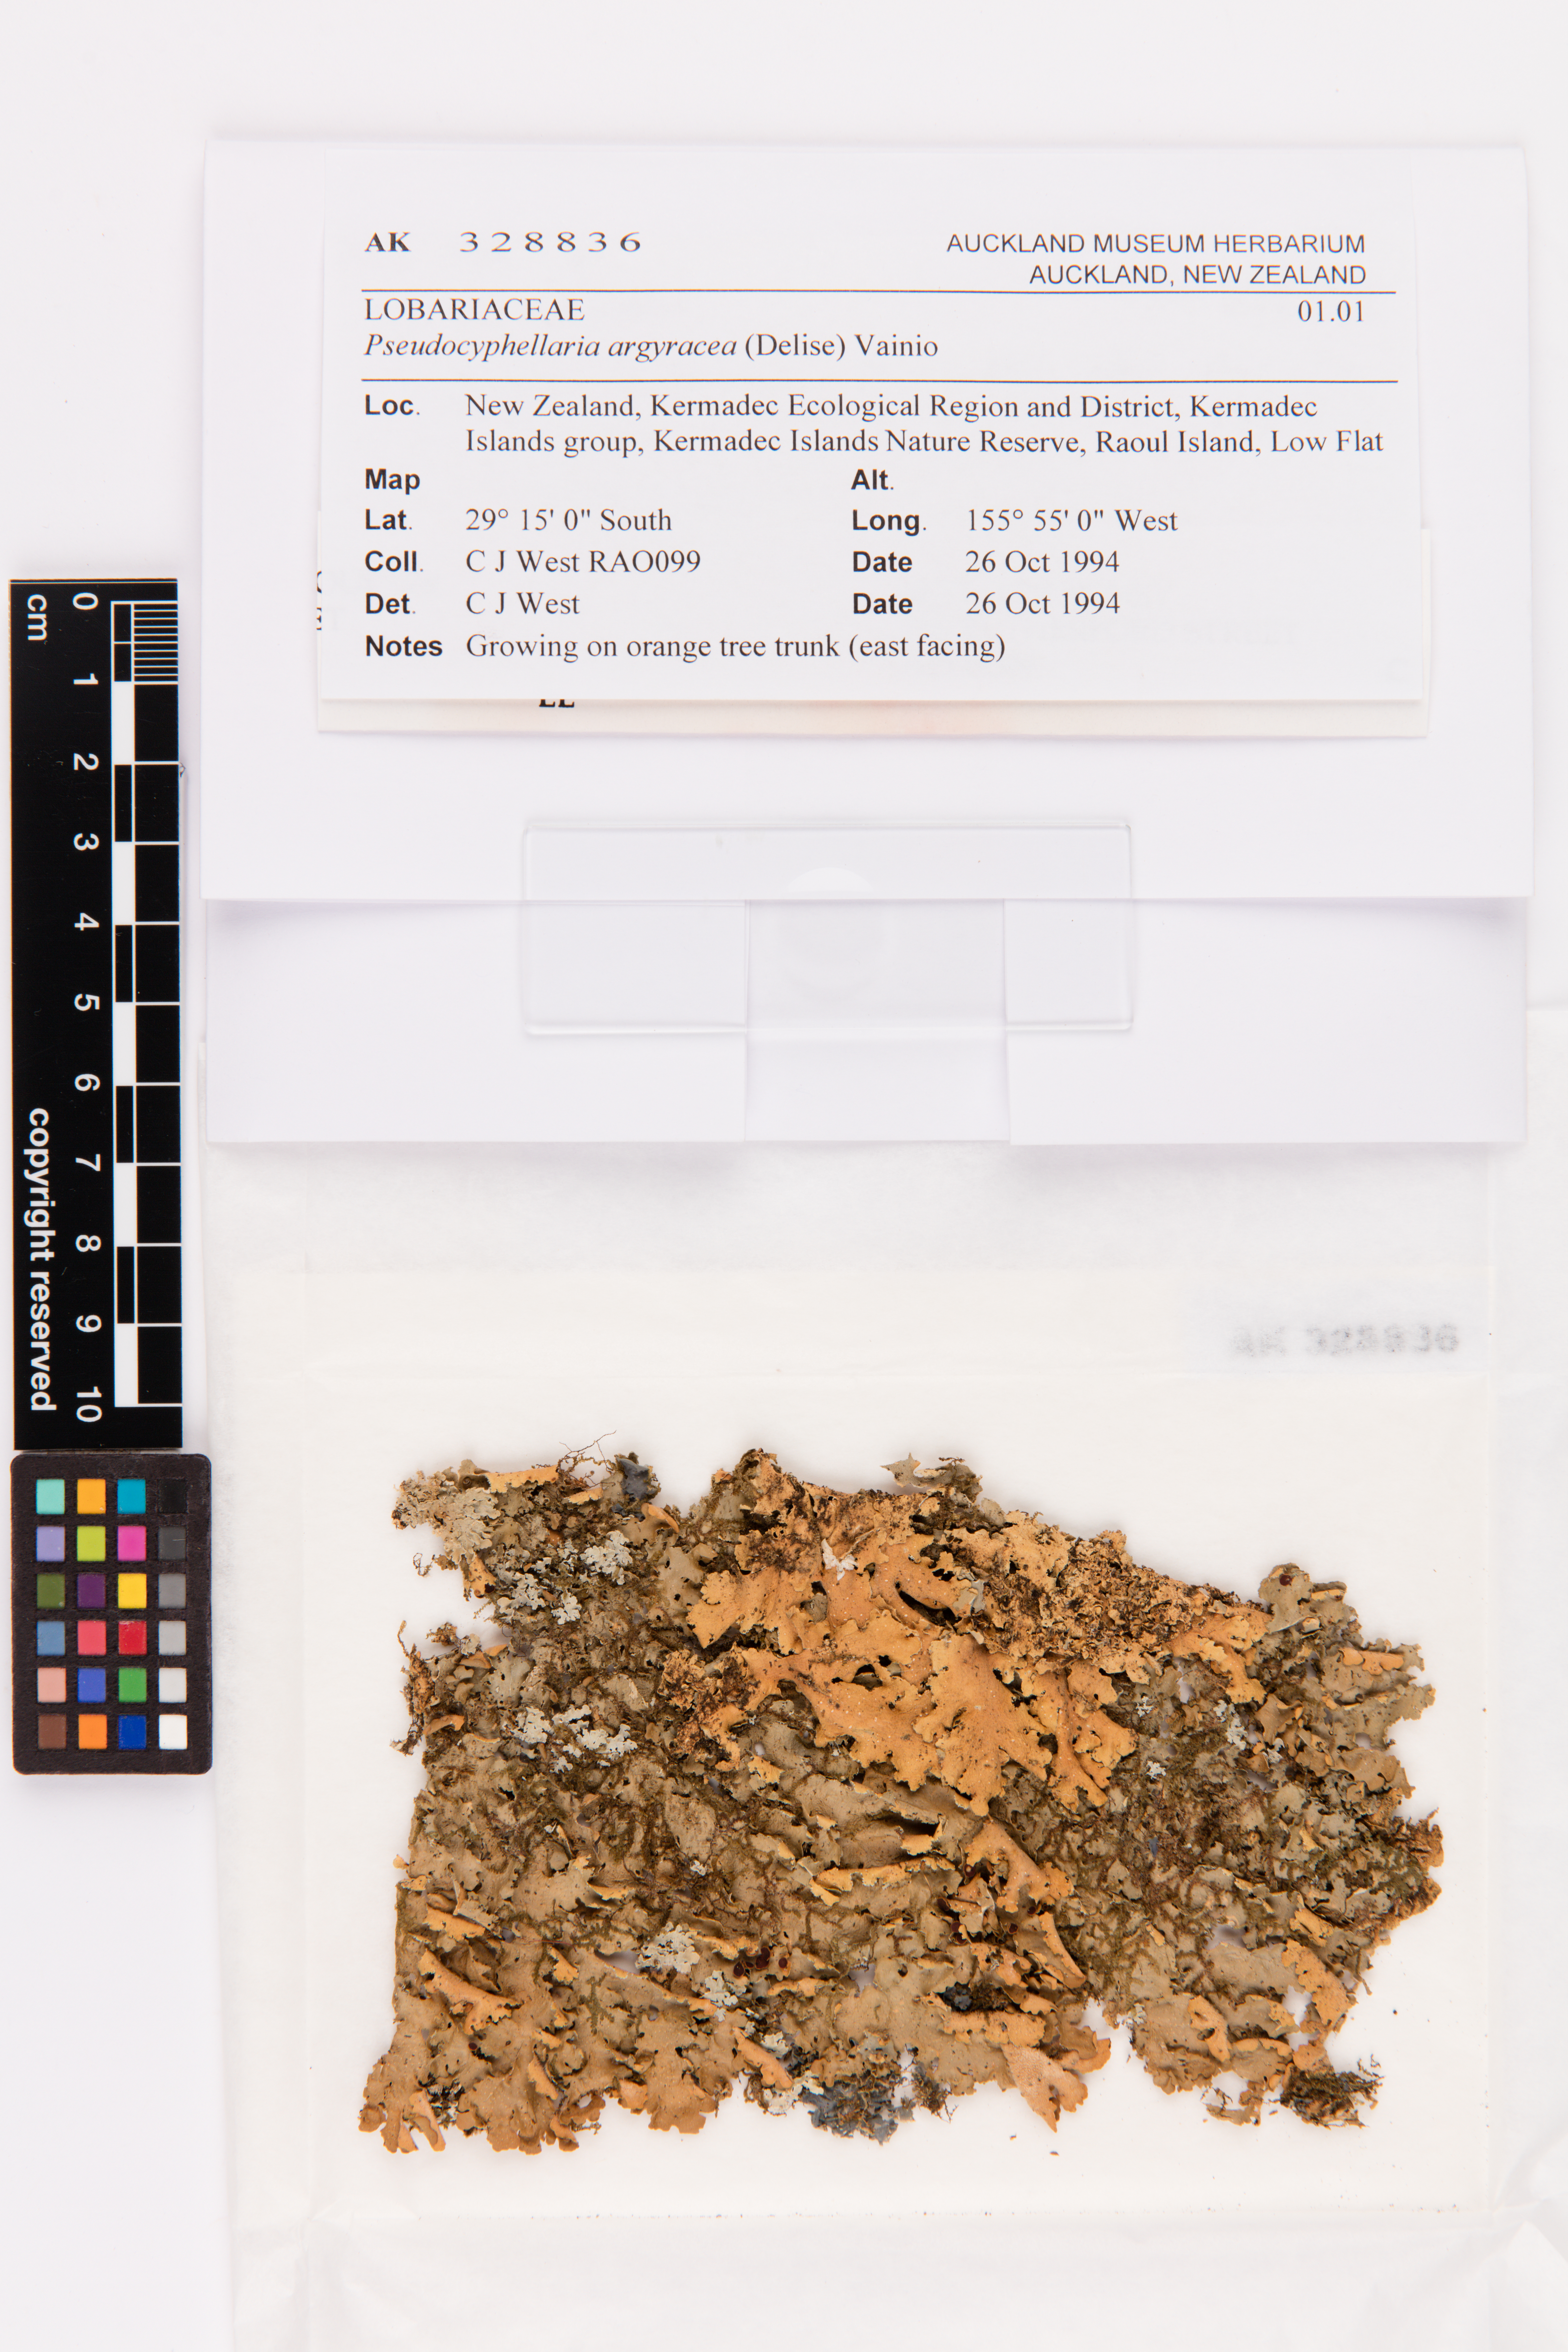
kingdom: Fungi
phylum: Ascomycota
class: Lecanoromycetes
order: Peltigerales
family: Lobariaceae
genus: Pseudocyphellaria
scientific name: Pseudocyphellaria argyracea
